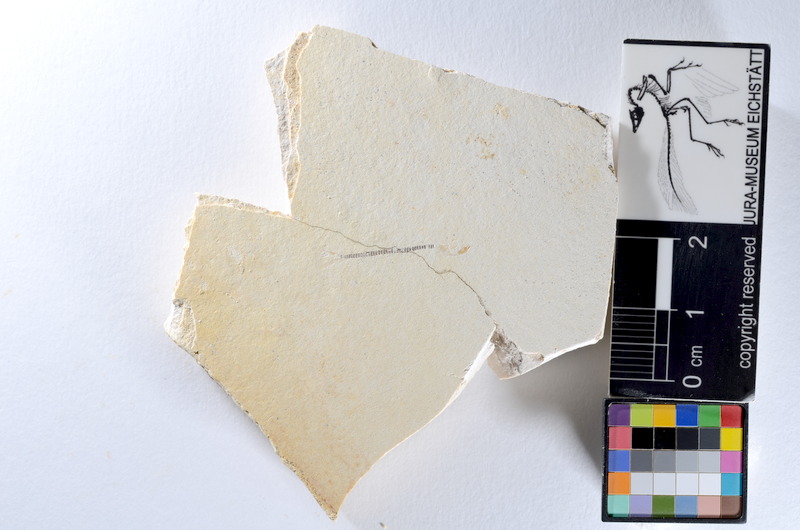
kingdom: Animalia
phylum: Chordata
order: Salmoniformes
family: Orthogonikleithridae
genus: Orthogonikleithrus
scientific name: Orthogonikleithrus hoelli
